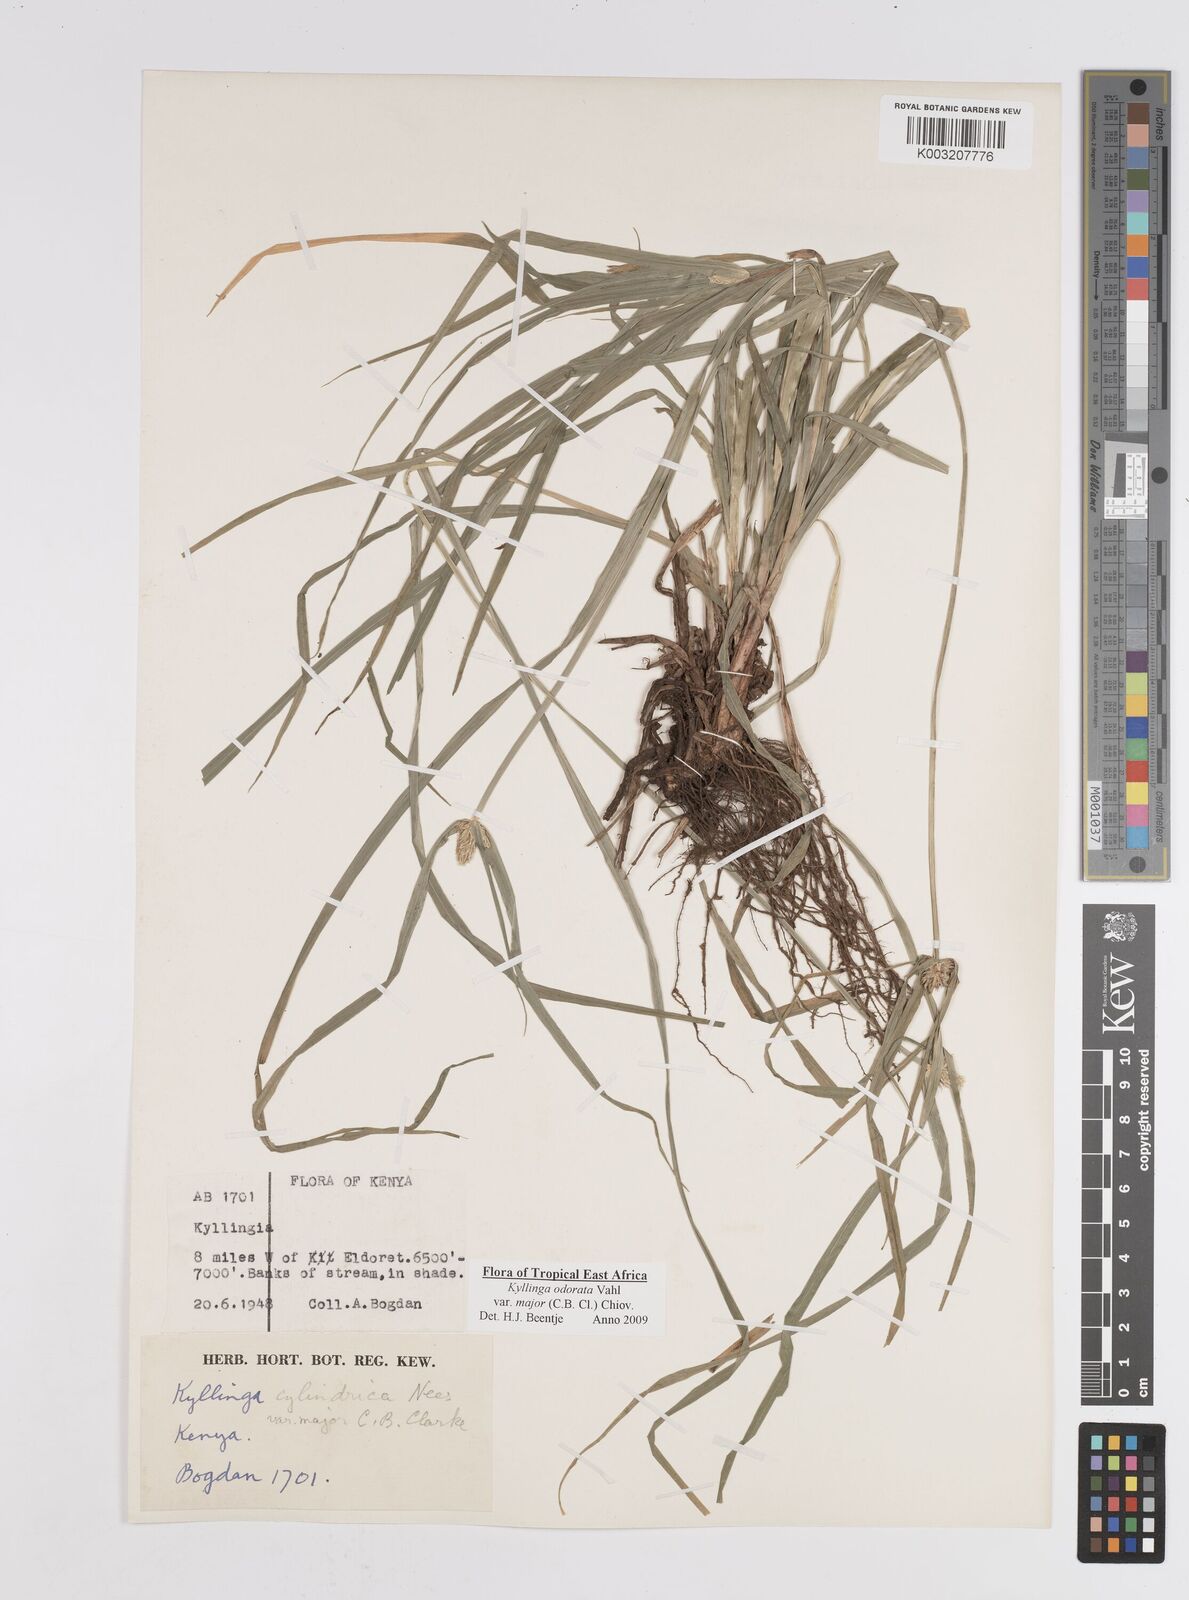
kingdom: Plantae
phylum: Tracheophyta
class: Liliopsida
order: Poales
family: Cyperaceae
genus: Cyperus
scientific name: Cyperus
